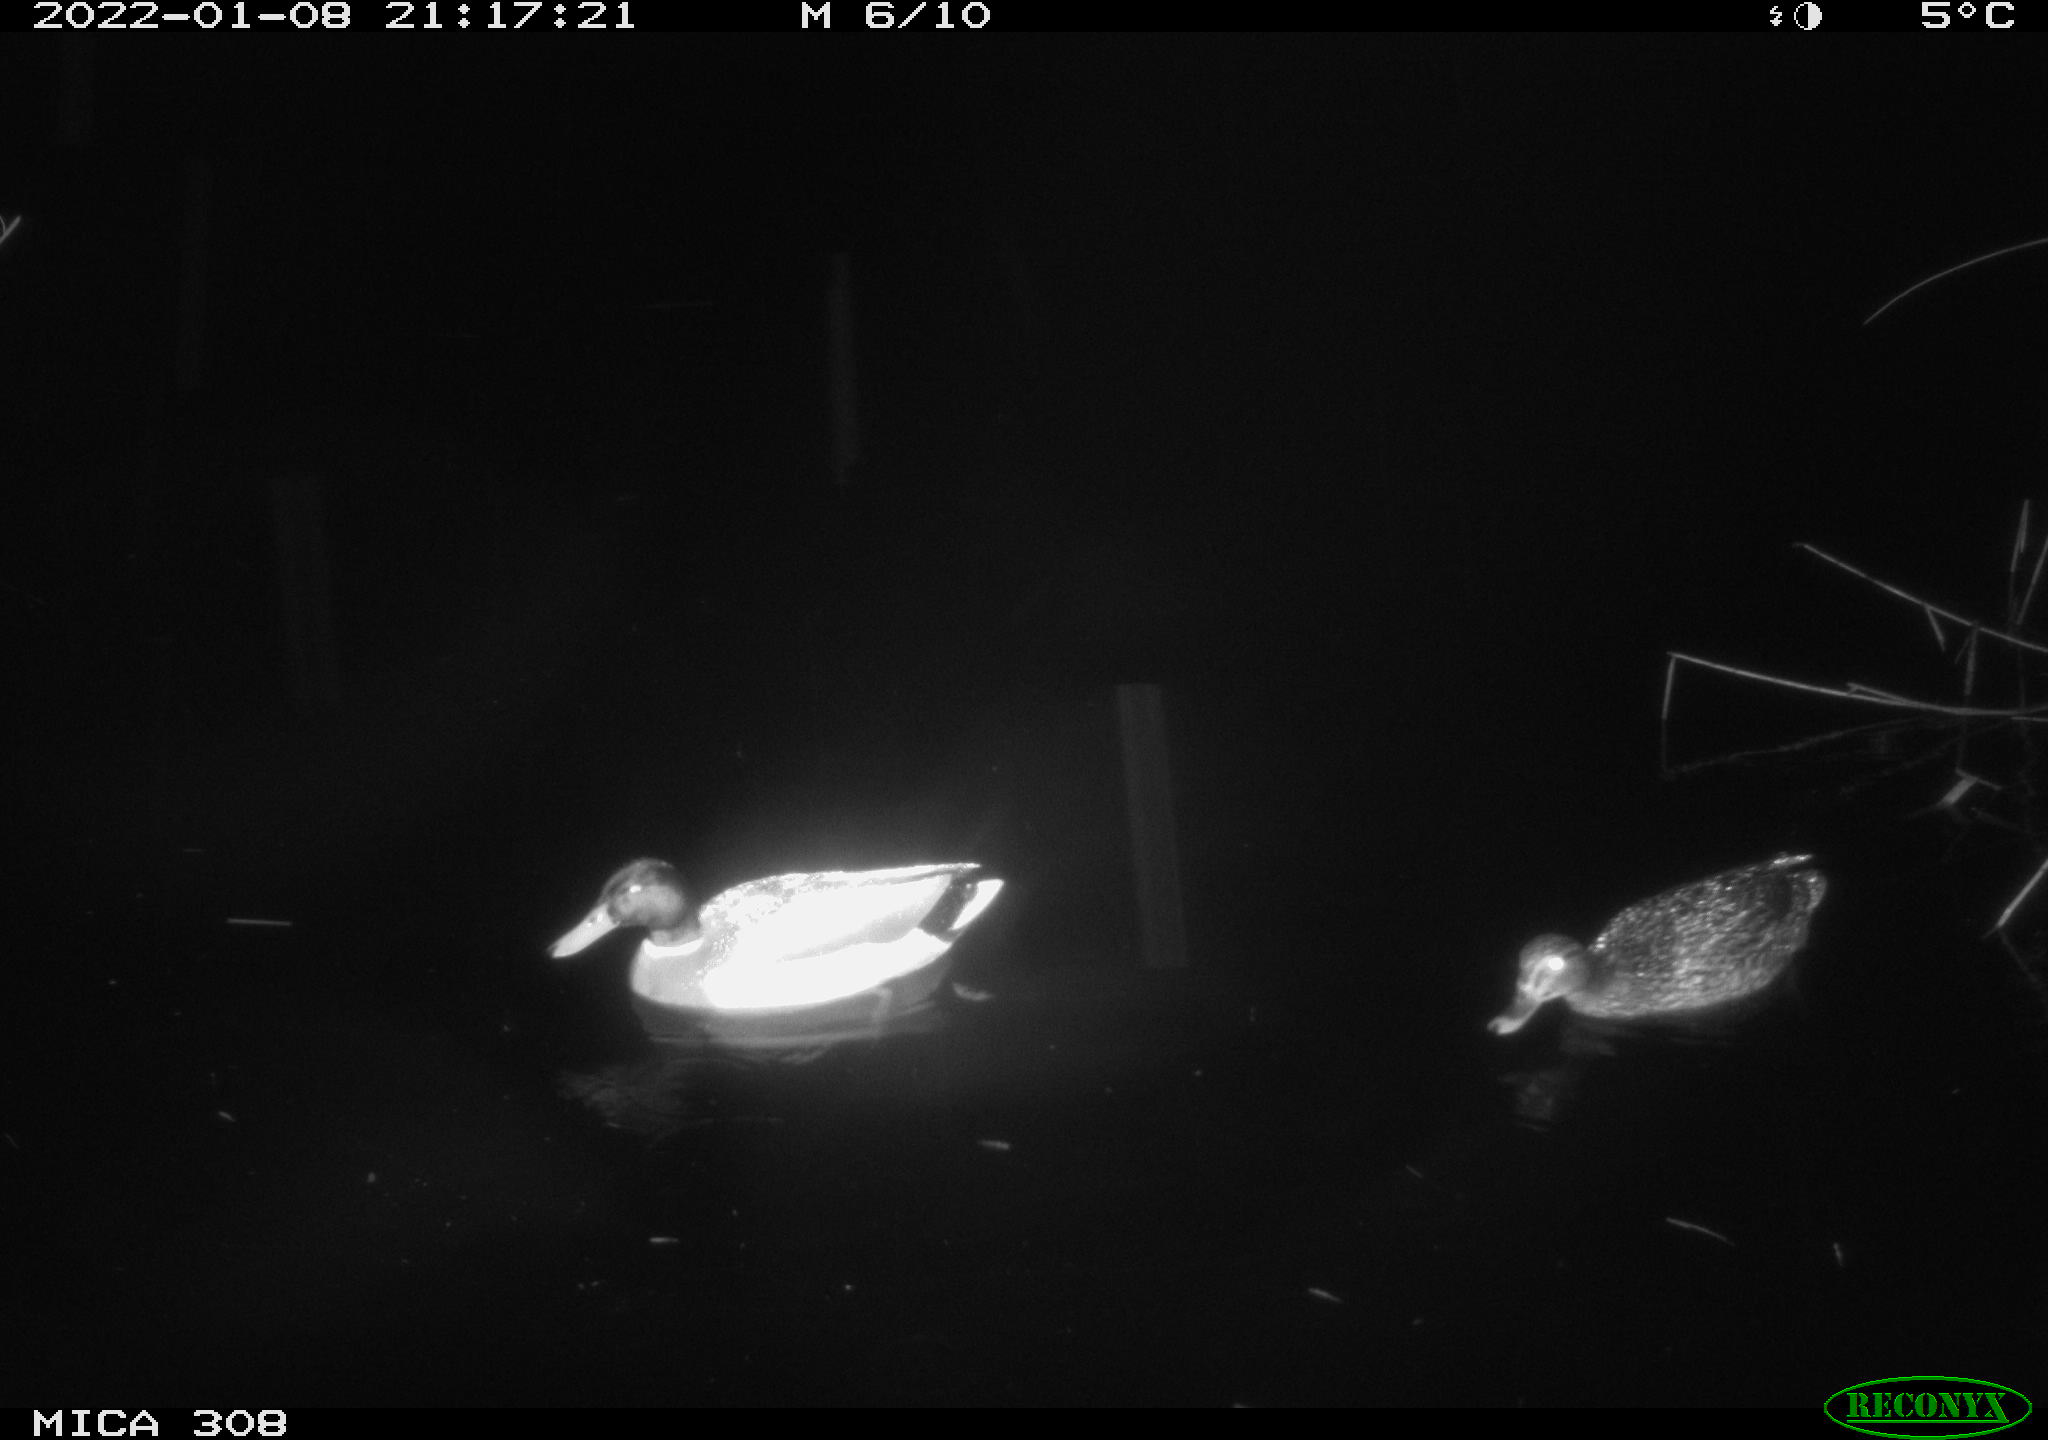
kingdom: Animalia
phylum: Chordata
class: Aves
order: Anseriformes
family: Anatidae
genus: Anas
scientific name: Anas
